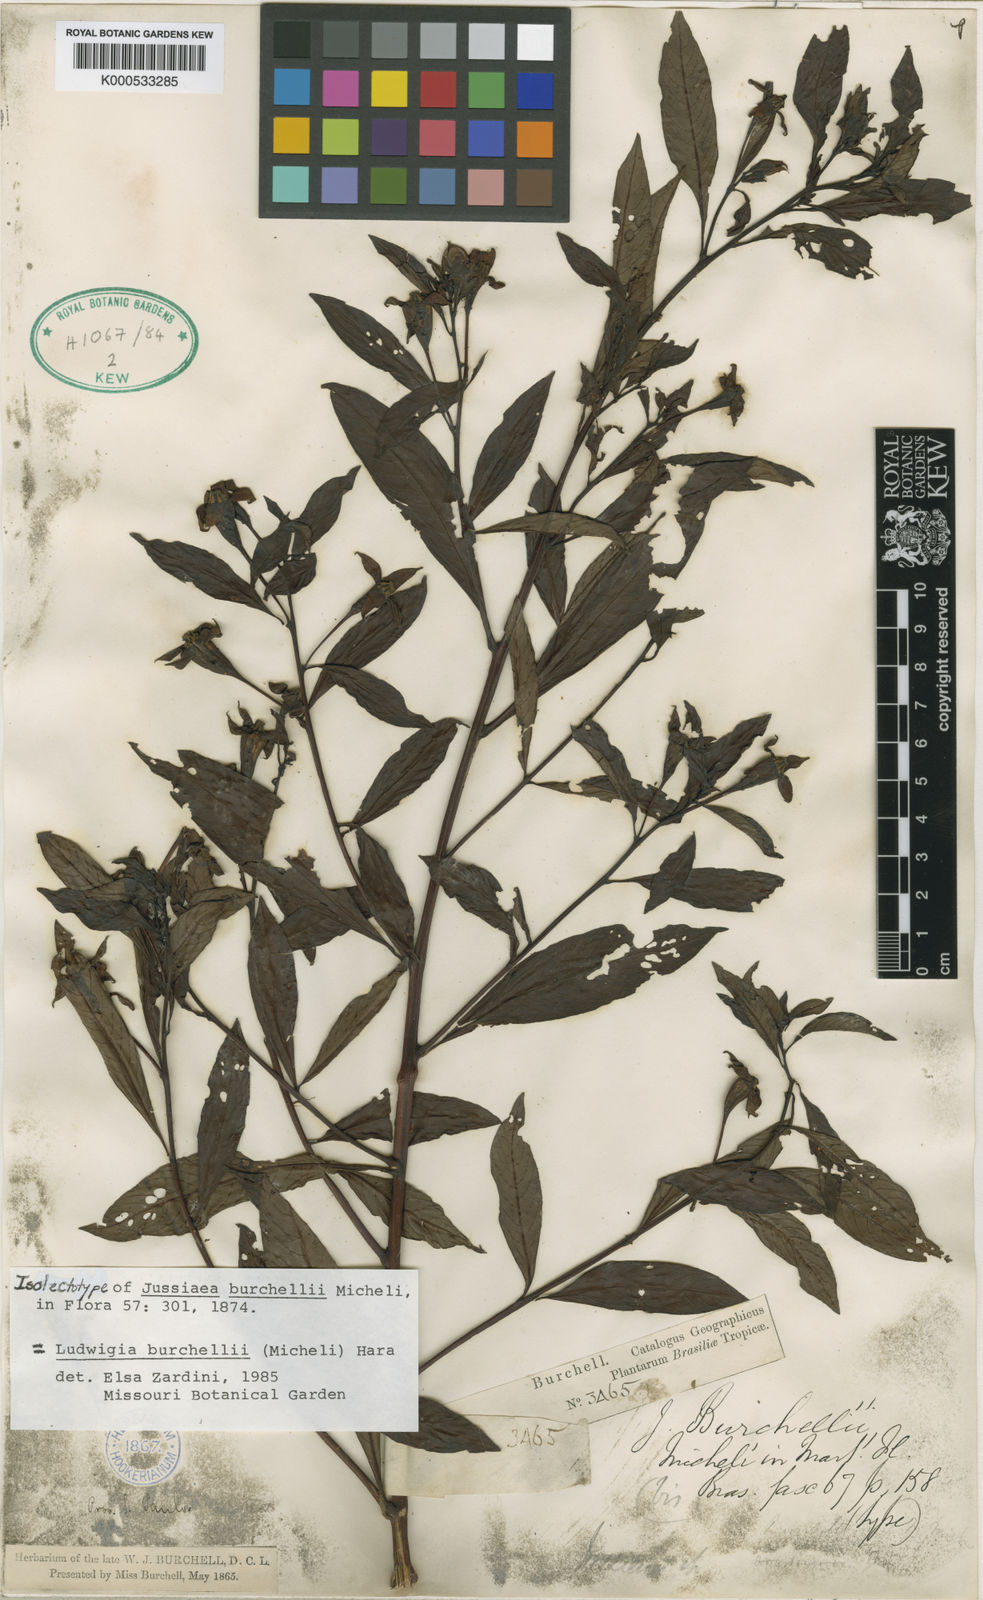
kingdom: Plantae
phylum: Tracheophyta
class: Magnoliopsida
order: Myrtales
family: Onagraceae
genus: Ludwigia
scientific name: Ludwigia burchellii
